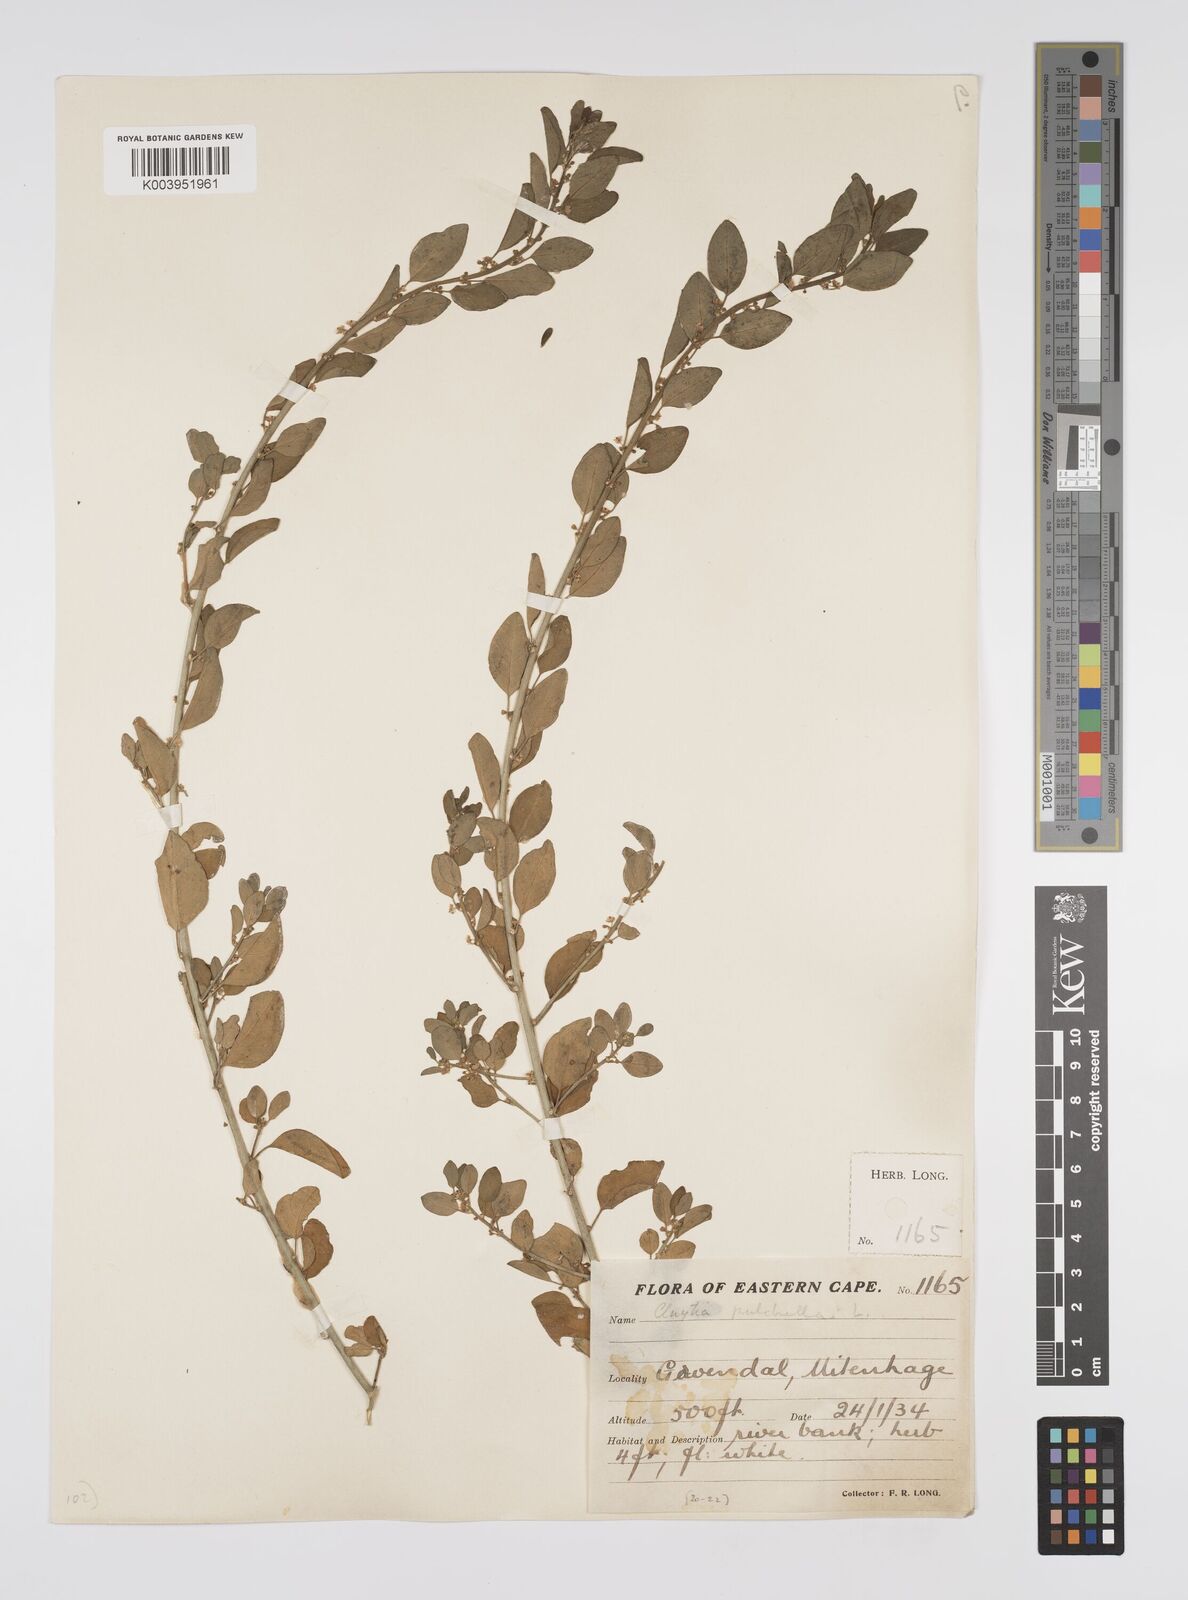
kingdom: Plantae
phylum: Tracheophyta
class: Magnoliopsida
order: Malpighiales
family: Peraceae
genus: Clutia
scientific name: Clutia pulchella
